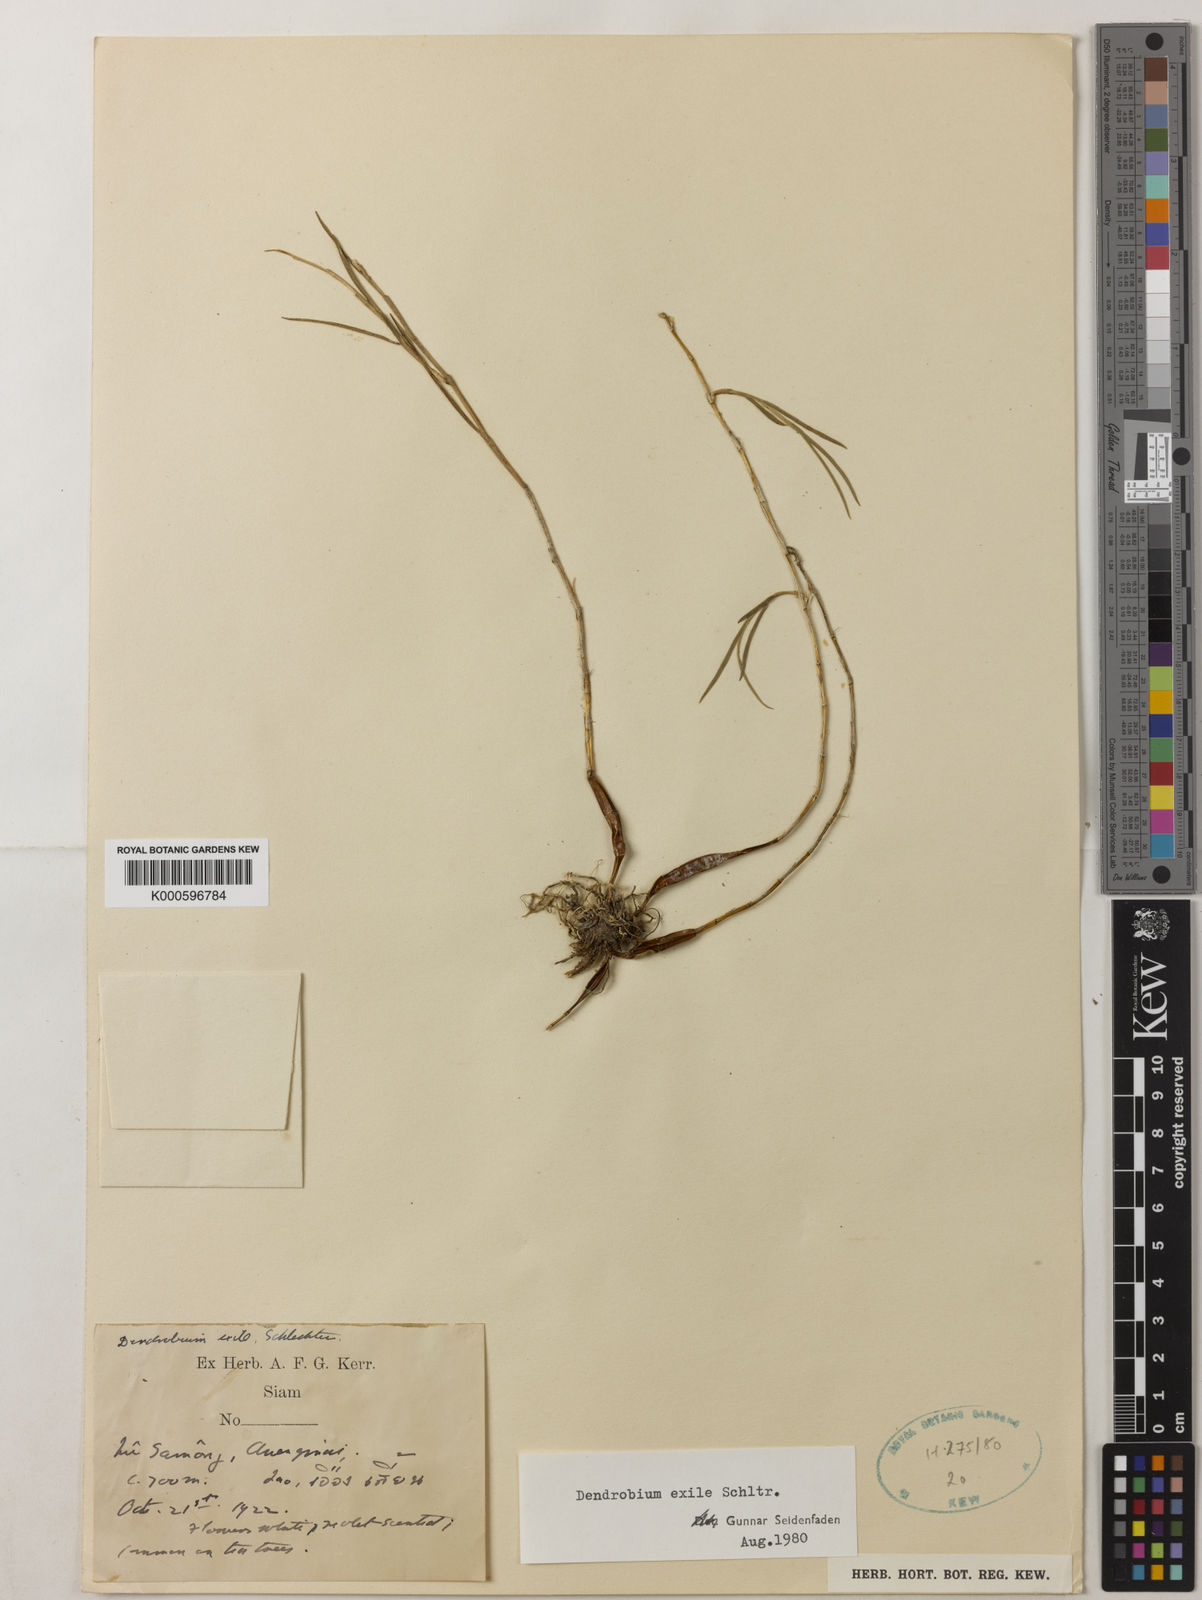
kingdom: Plantae
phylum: Tracheophyta
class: Liliopsida
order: Asparagales
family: Orchidaceae
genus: Dendrobium
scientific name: Dendrobium exile
